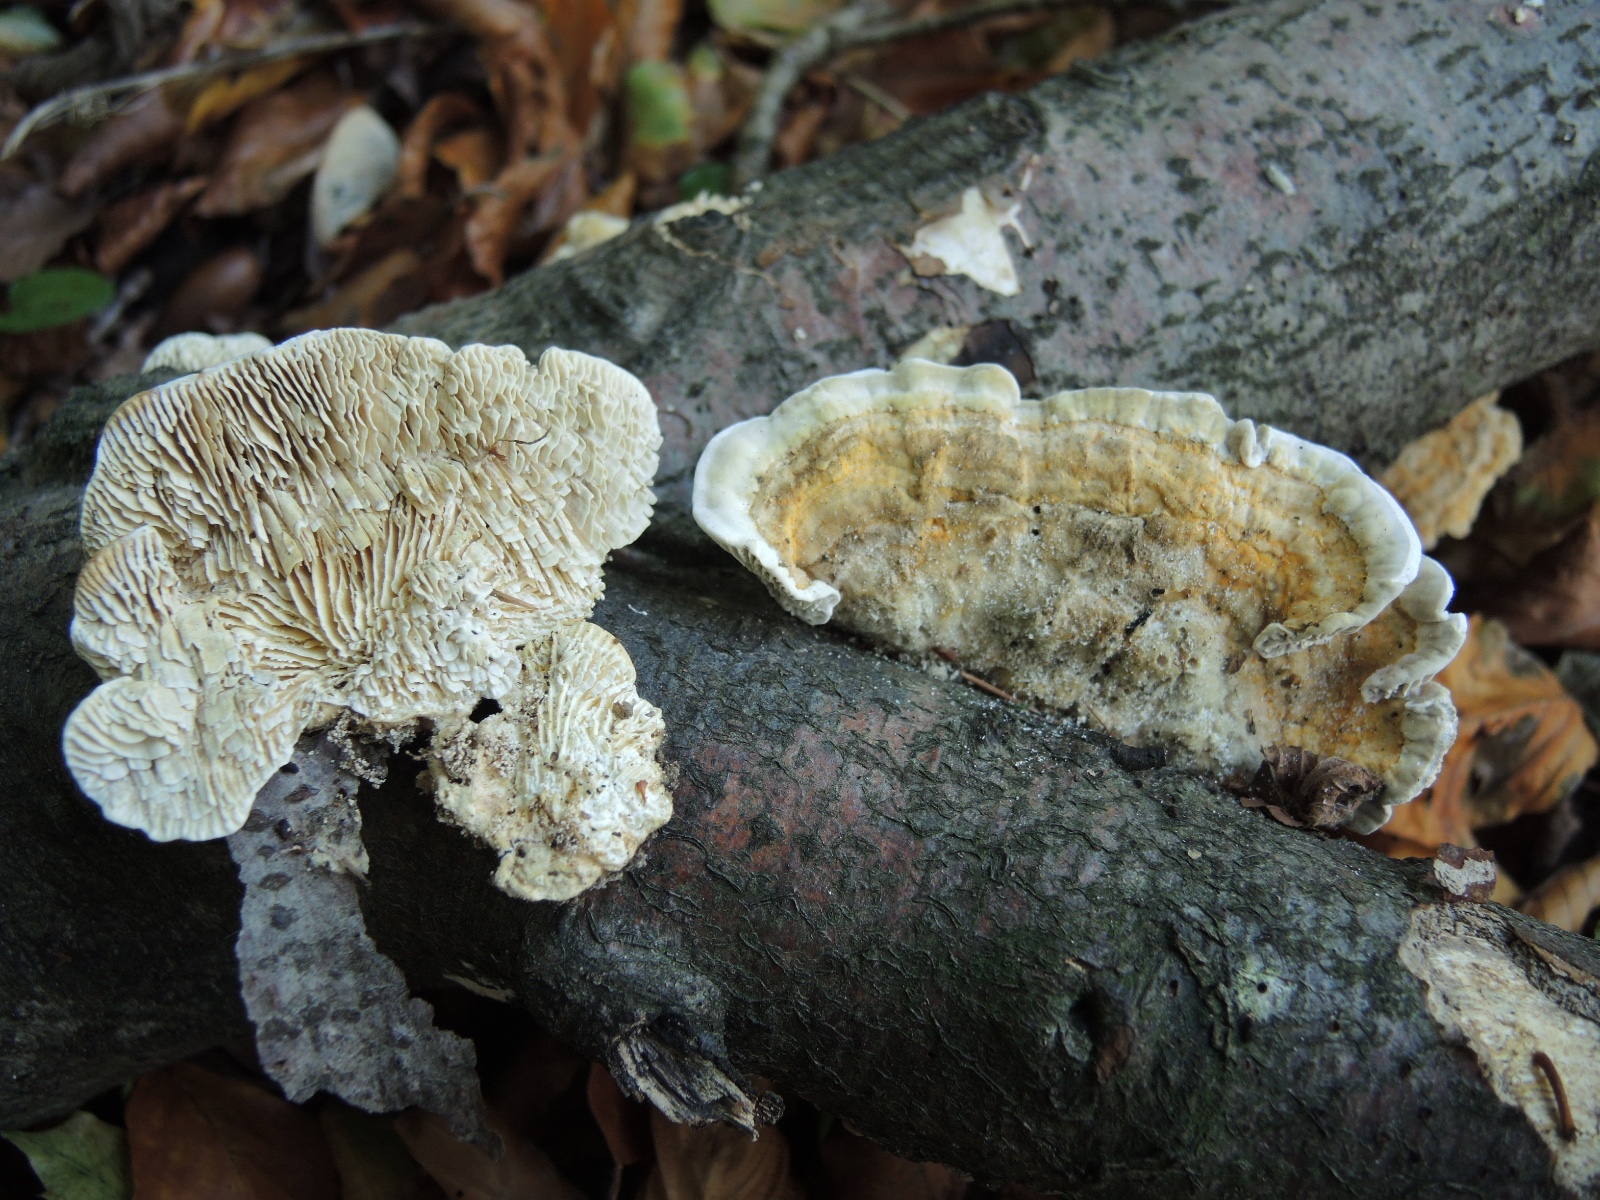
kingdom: Fungi
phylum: Basidiomycota
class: Agaricomycetes
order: Polyporales
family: Polyporaceae
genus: Lenzites
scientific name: Lenzites betulinus
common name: birke-læderporesvamp
